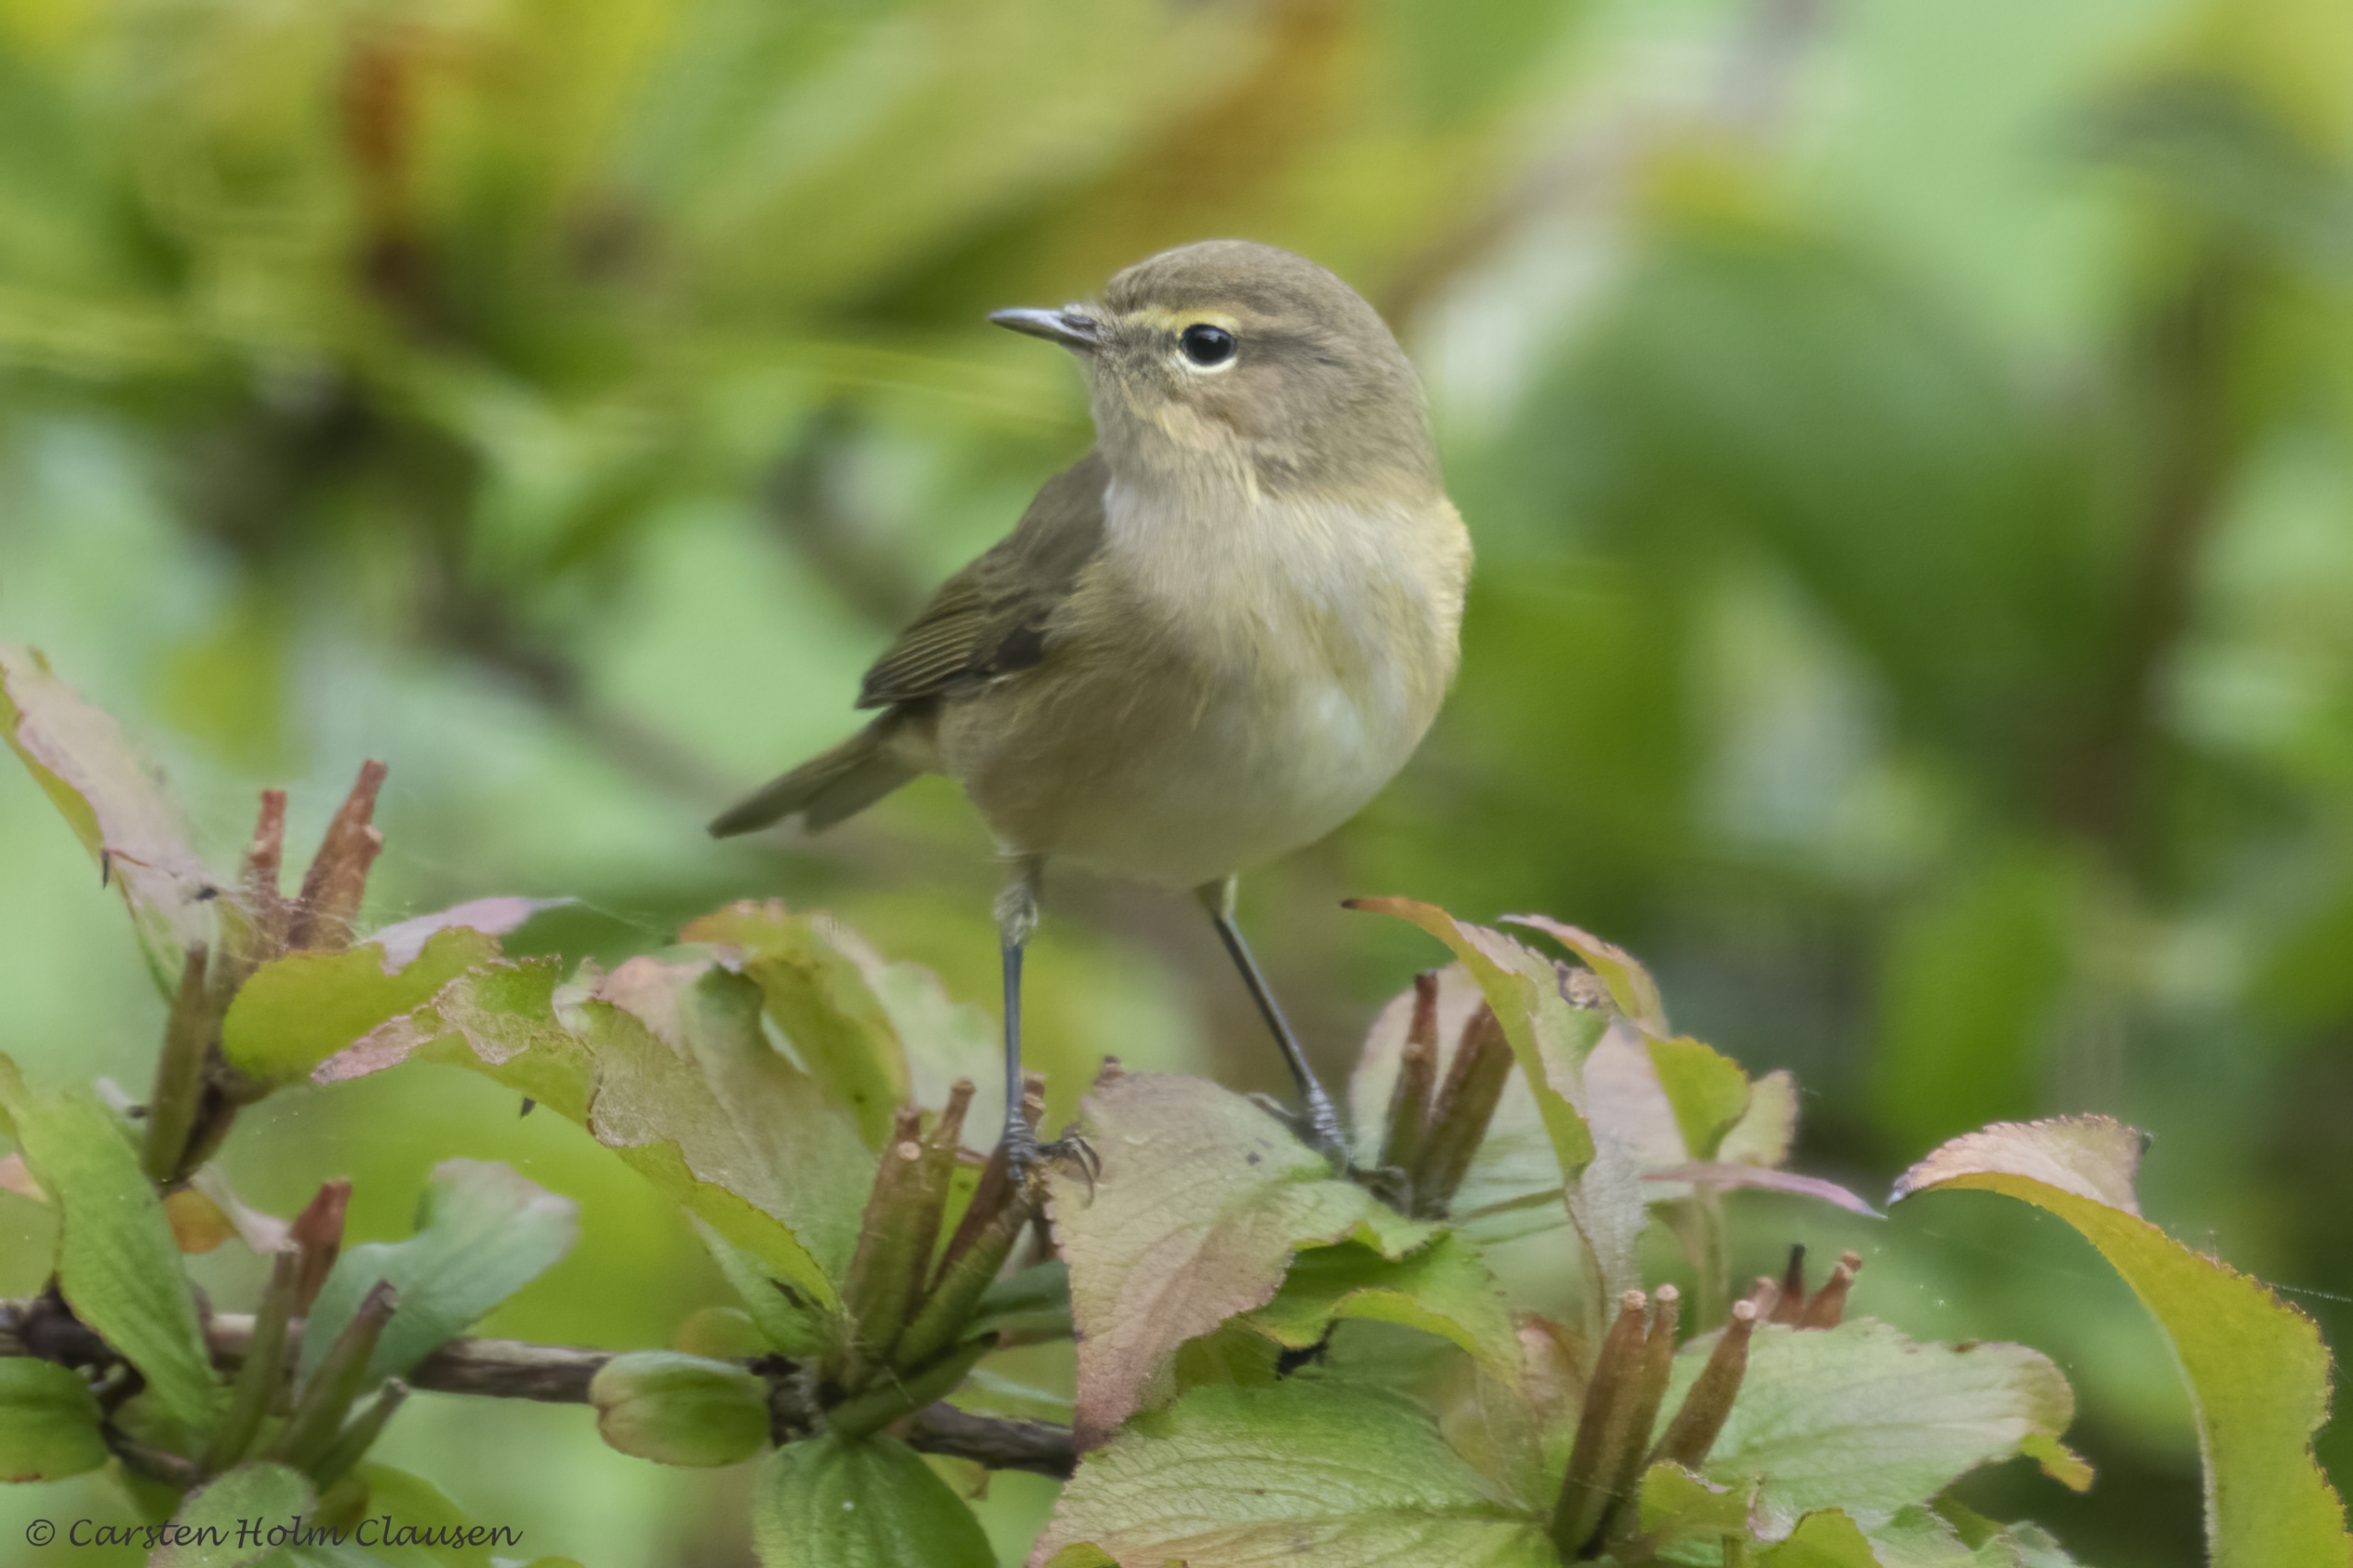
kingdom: Animalia
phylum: Chordata
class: Aves
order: Passeriformes
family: Phylloscopidae
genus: Phylloscopus
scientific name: Phylloscopus collybita
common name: Gransanger
